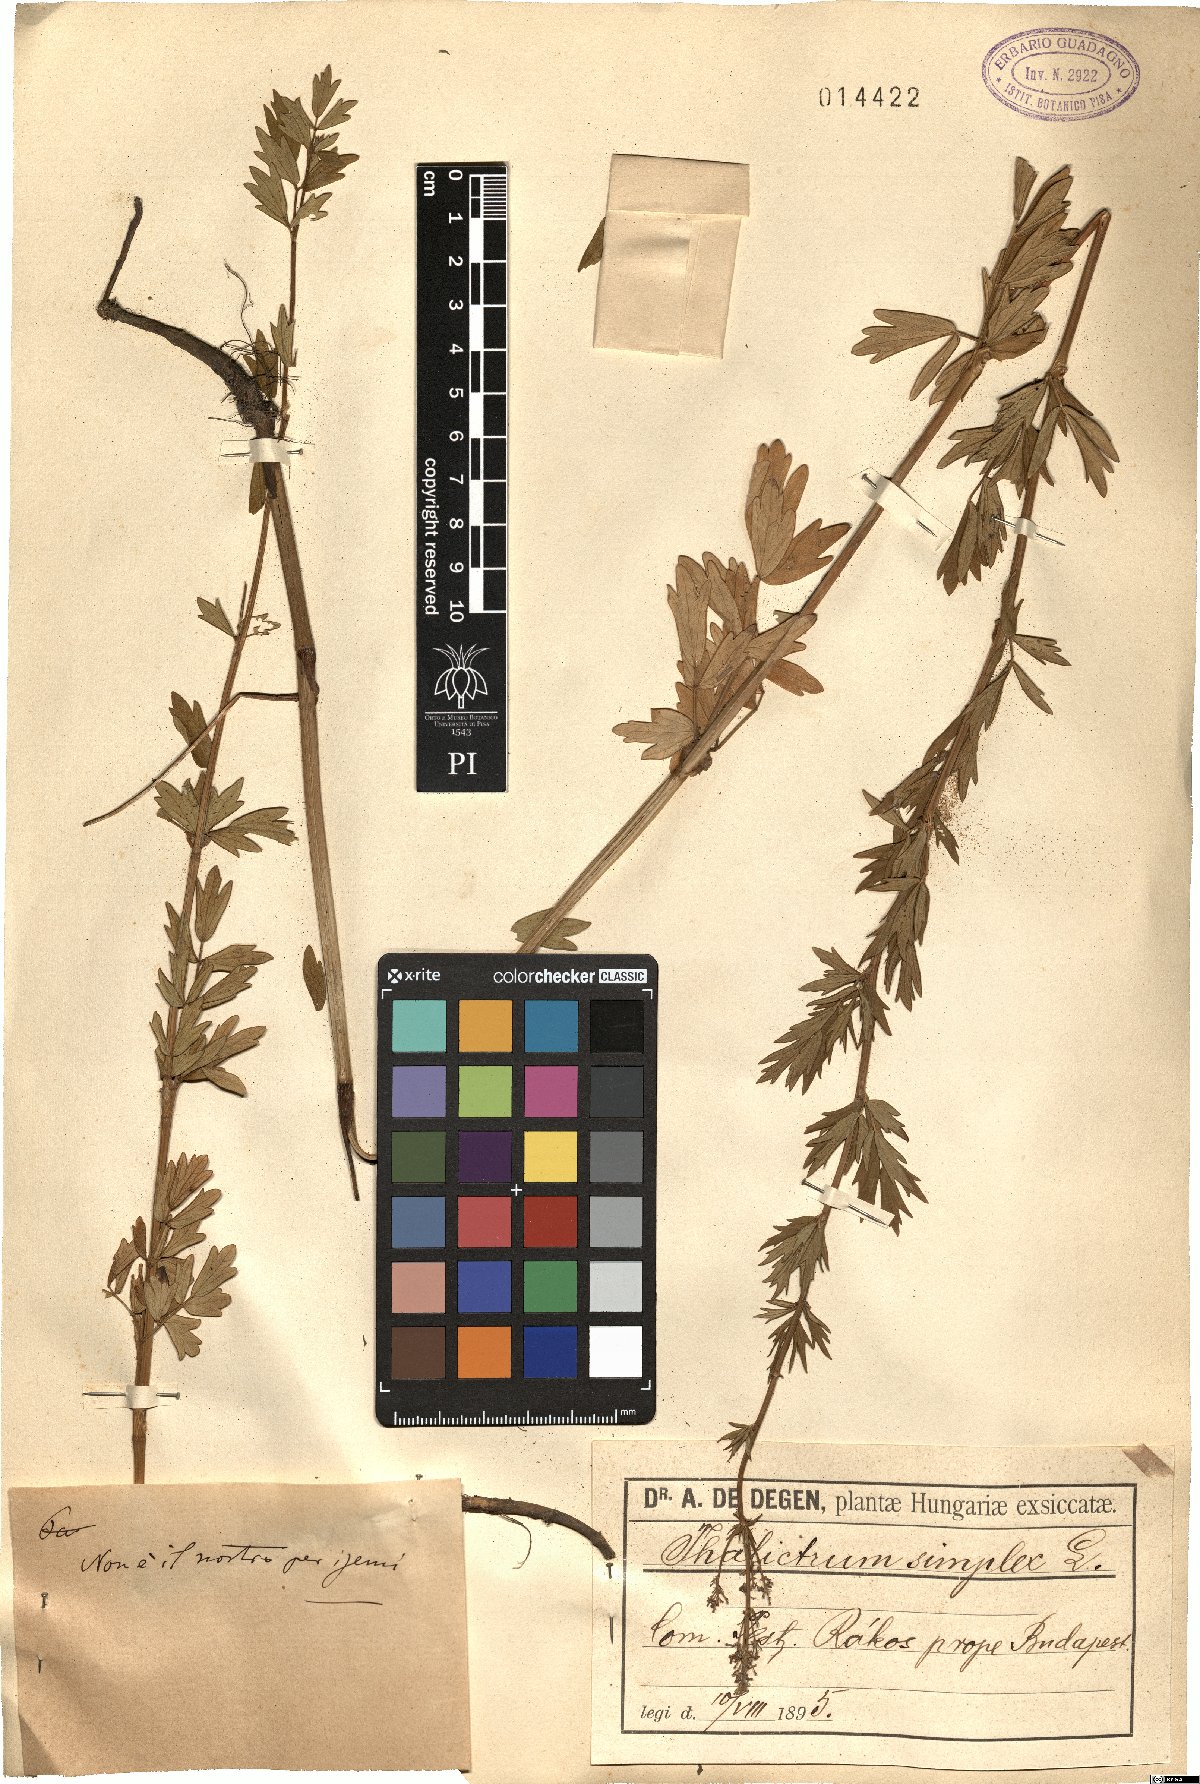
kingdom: Plantae
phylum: Tracheophyta
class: Magnoliopsida
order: Ranunculales
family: Ranunculaceae
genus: Thalictrum
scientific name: Thalictrum simplex
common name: Small meadow-rue
